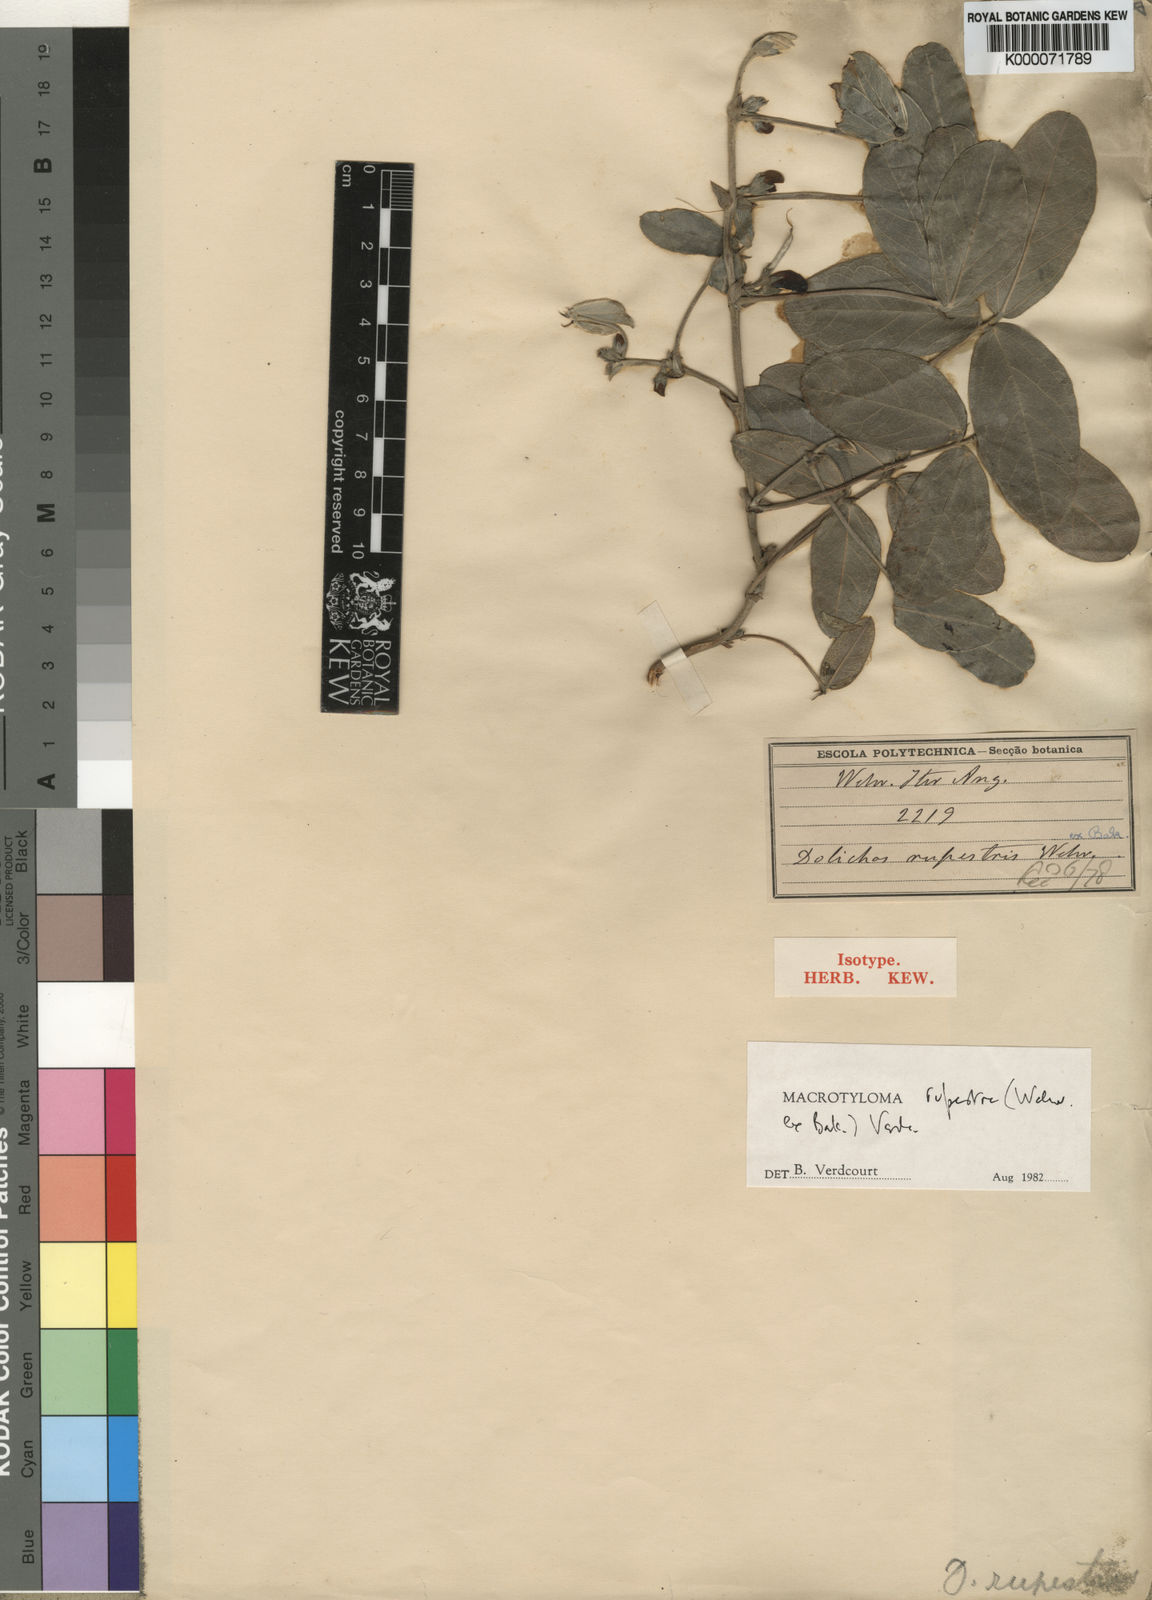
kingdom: Plantae
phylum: Tracheophyta
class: Magnoliopsida
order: Fabales
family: Fabaceae
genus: Macrotyloma
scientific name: Macrotyloma rupestre
